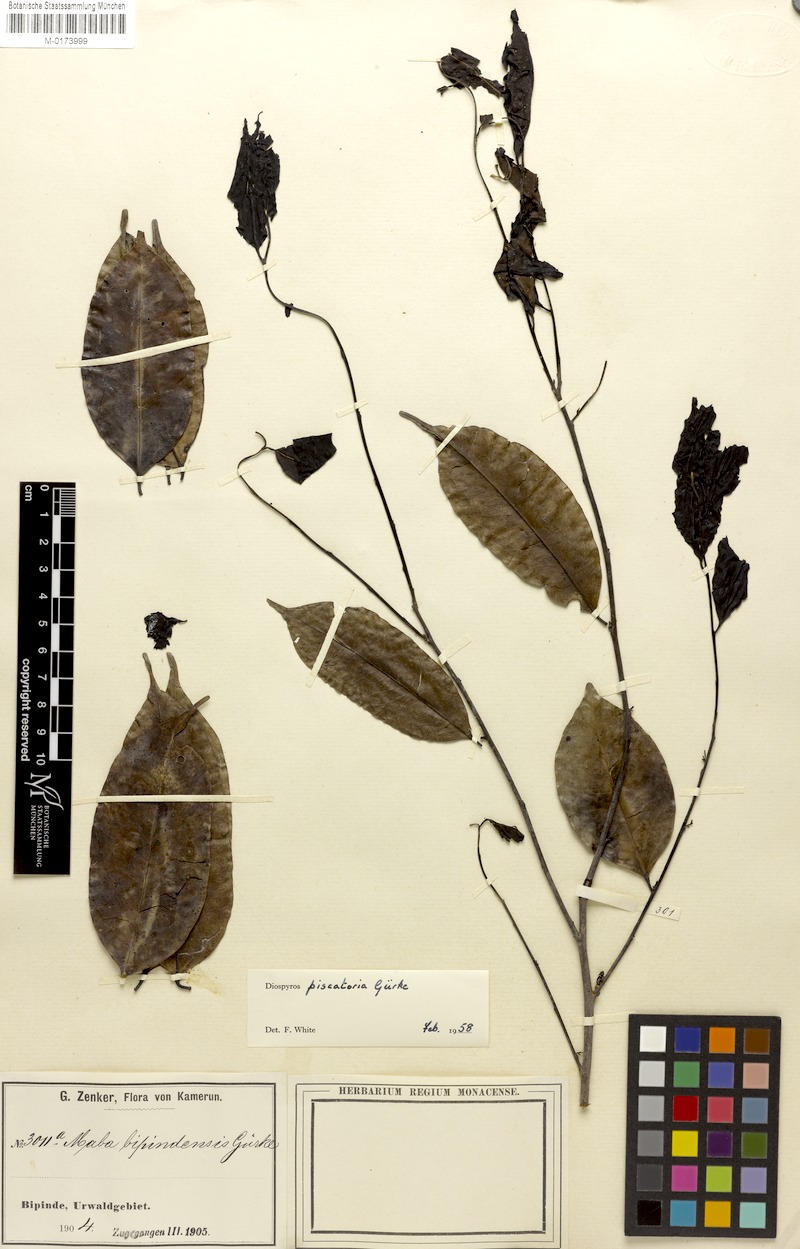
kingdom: Plantae
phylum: Tracheophyta
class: Magnoliopsida
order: Ericales
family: Ebenaceae
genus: Diospyros
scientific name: Diospyros piscatoria
